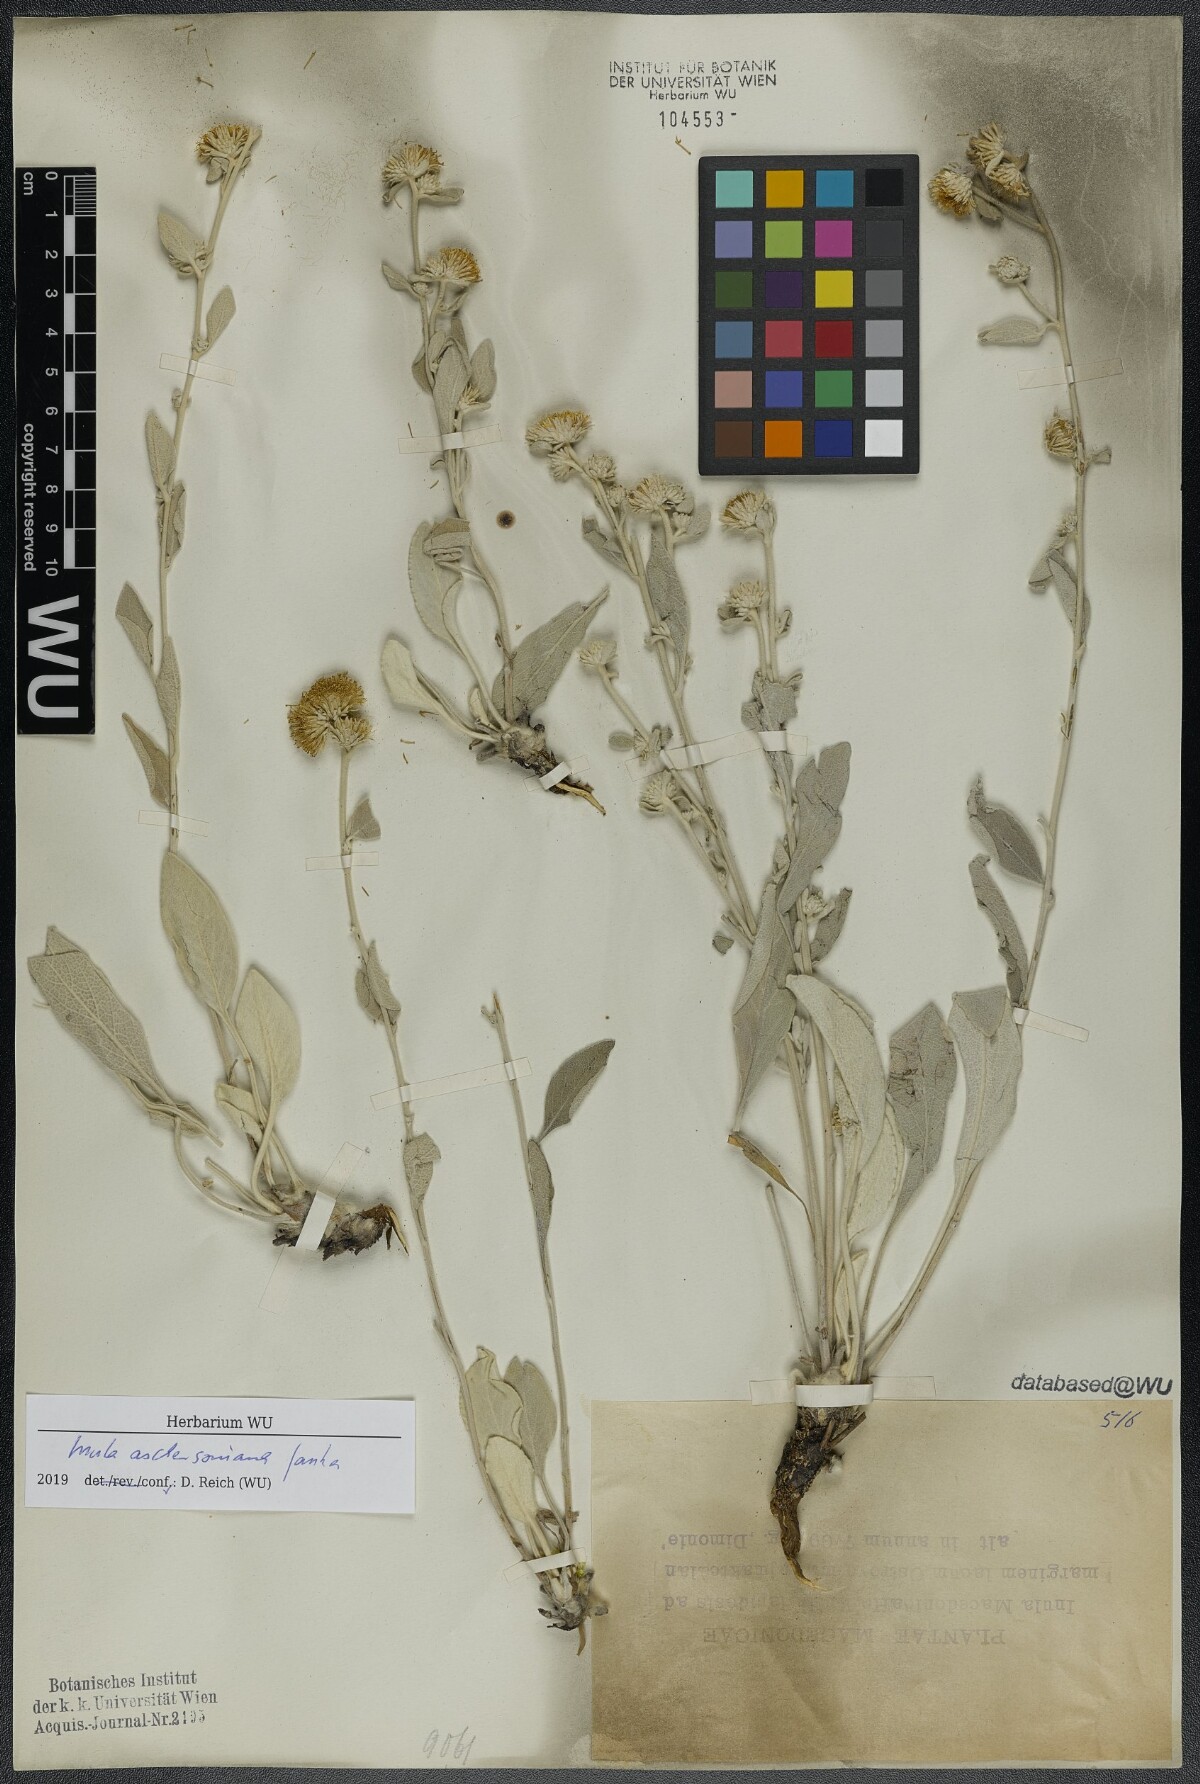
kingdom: Plantae
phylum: Tracheophyta
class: Magnoliopsida
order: Asterales
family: Asteraceae
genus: Pentanema
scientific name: Pentanema aschersonianum
